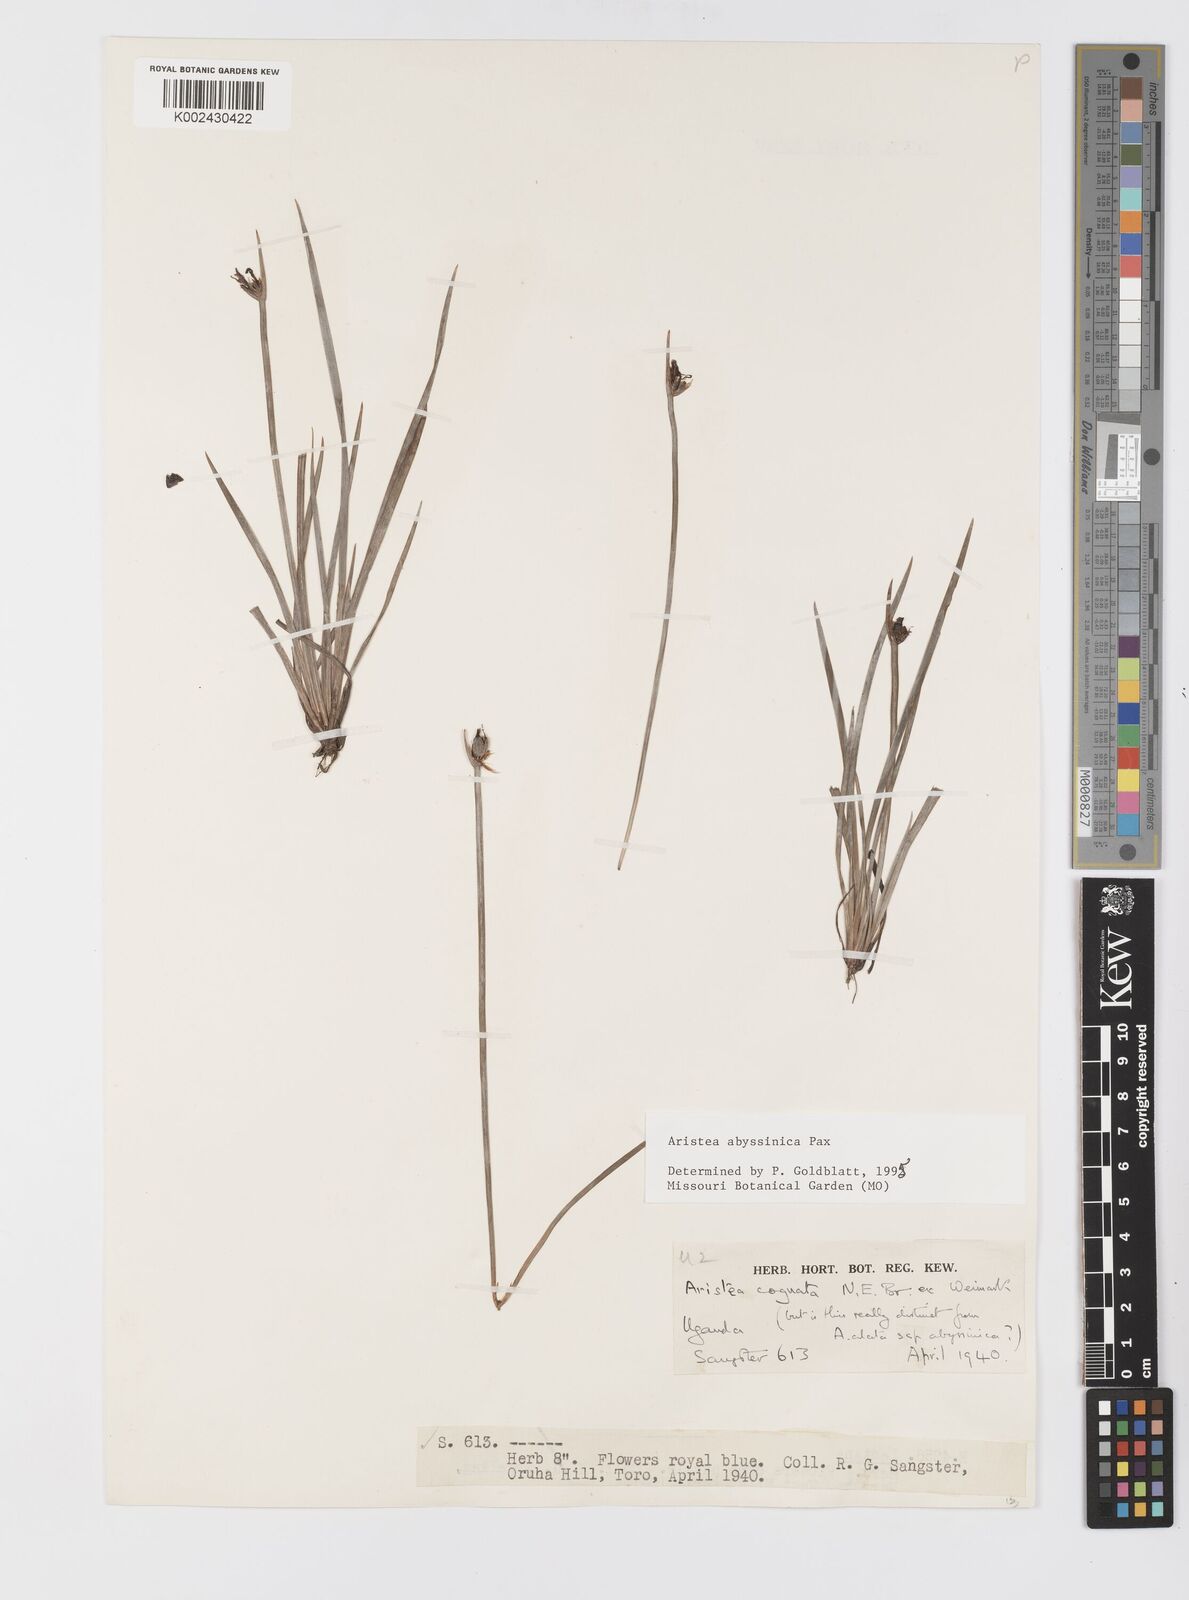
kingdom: Plantae
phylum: Tracheophyta
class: Liliopsida
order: Asparagales
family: Iridaceae
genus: Aristea
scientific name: Aristea abyssinica
